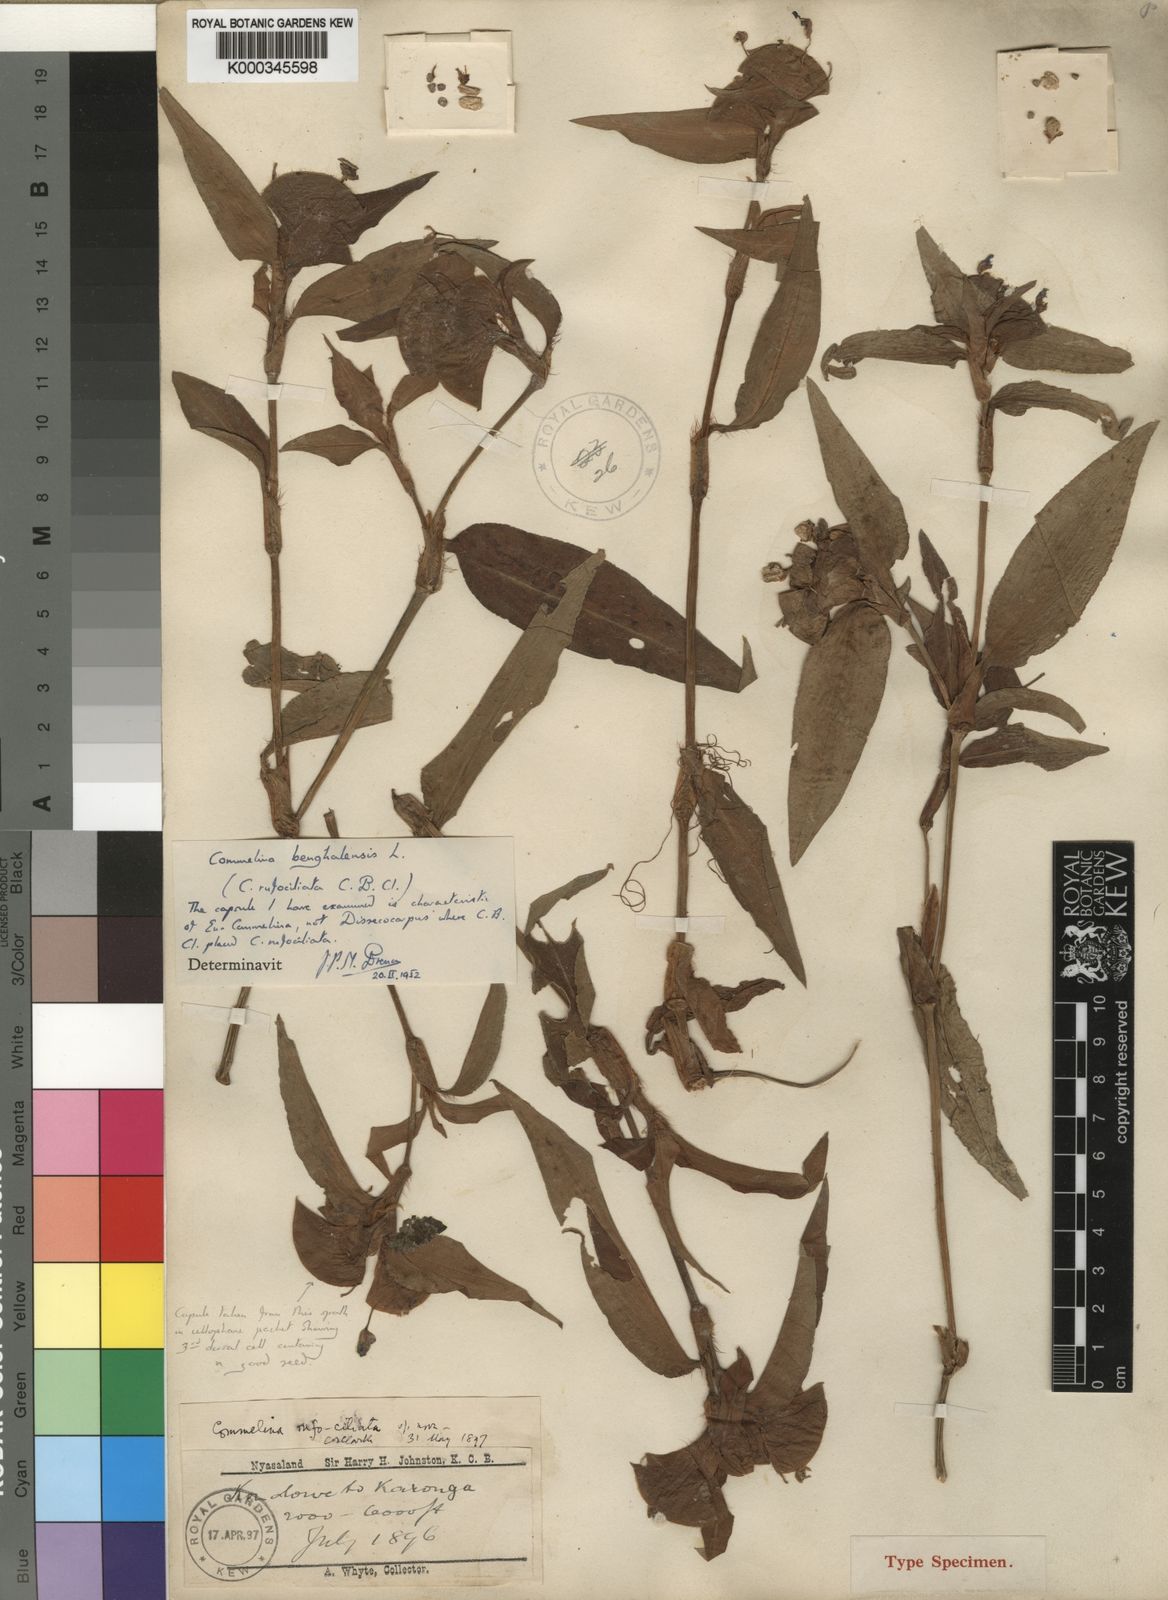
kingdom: Plantae
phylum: Tracheophyta
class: Liliopsida
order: Commelinales
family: Commelinaceae
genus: Commelina
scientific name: Commelina benghalensis
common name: Jio
